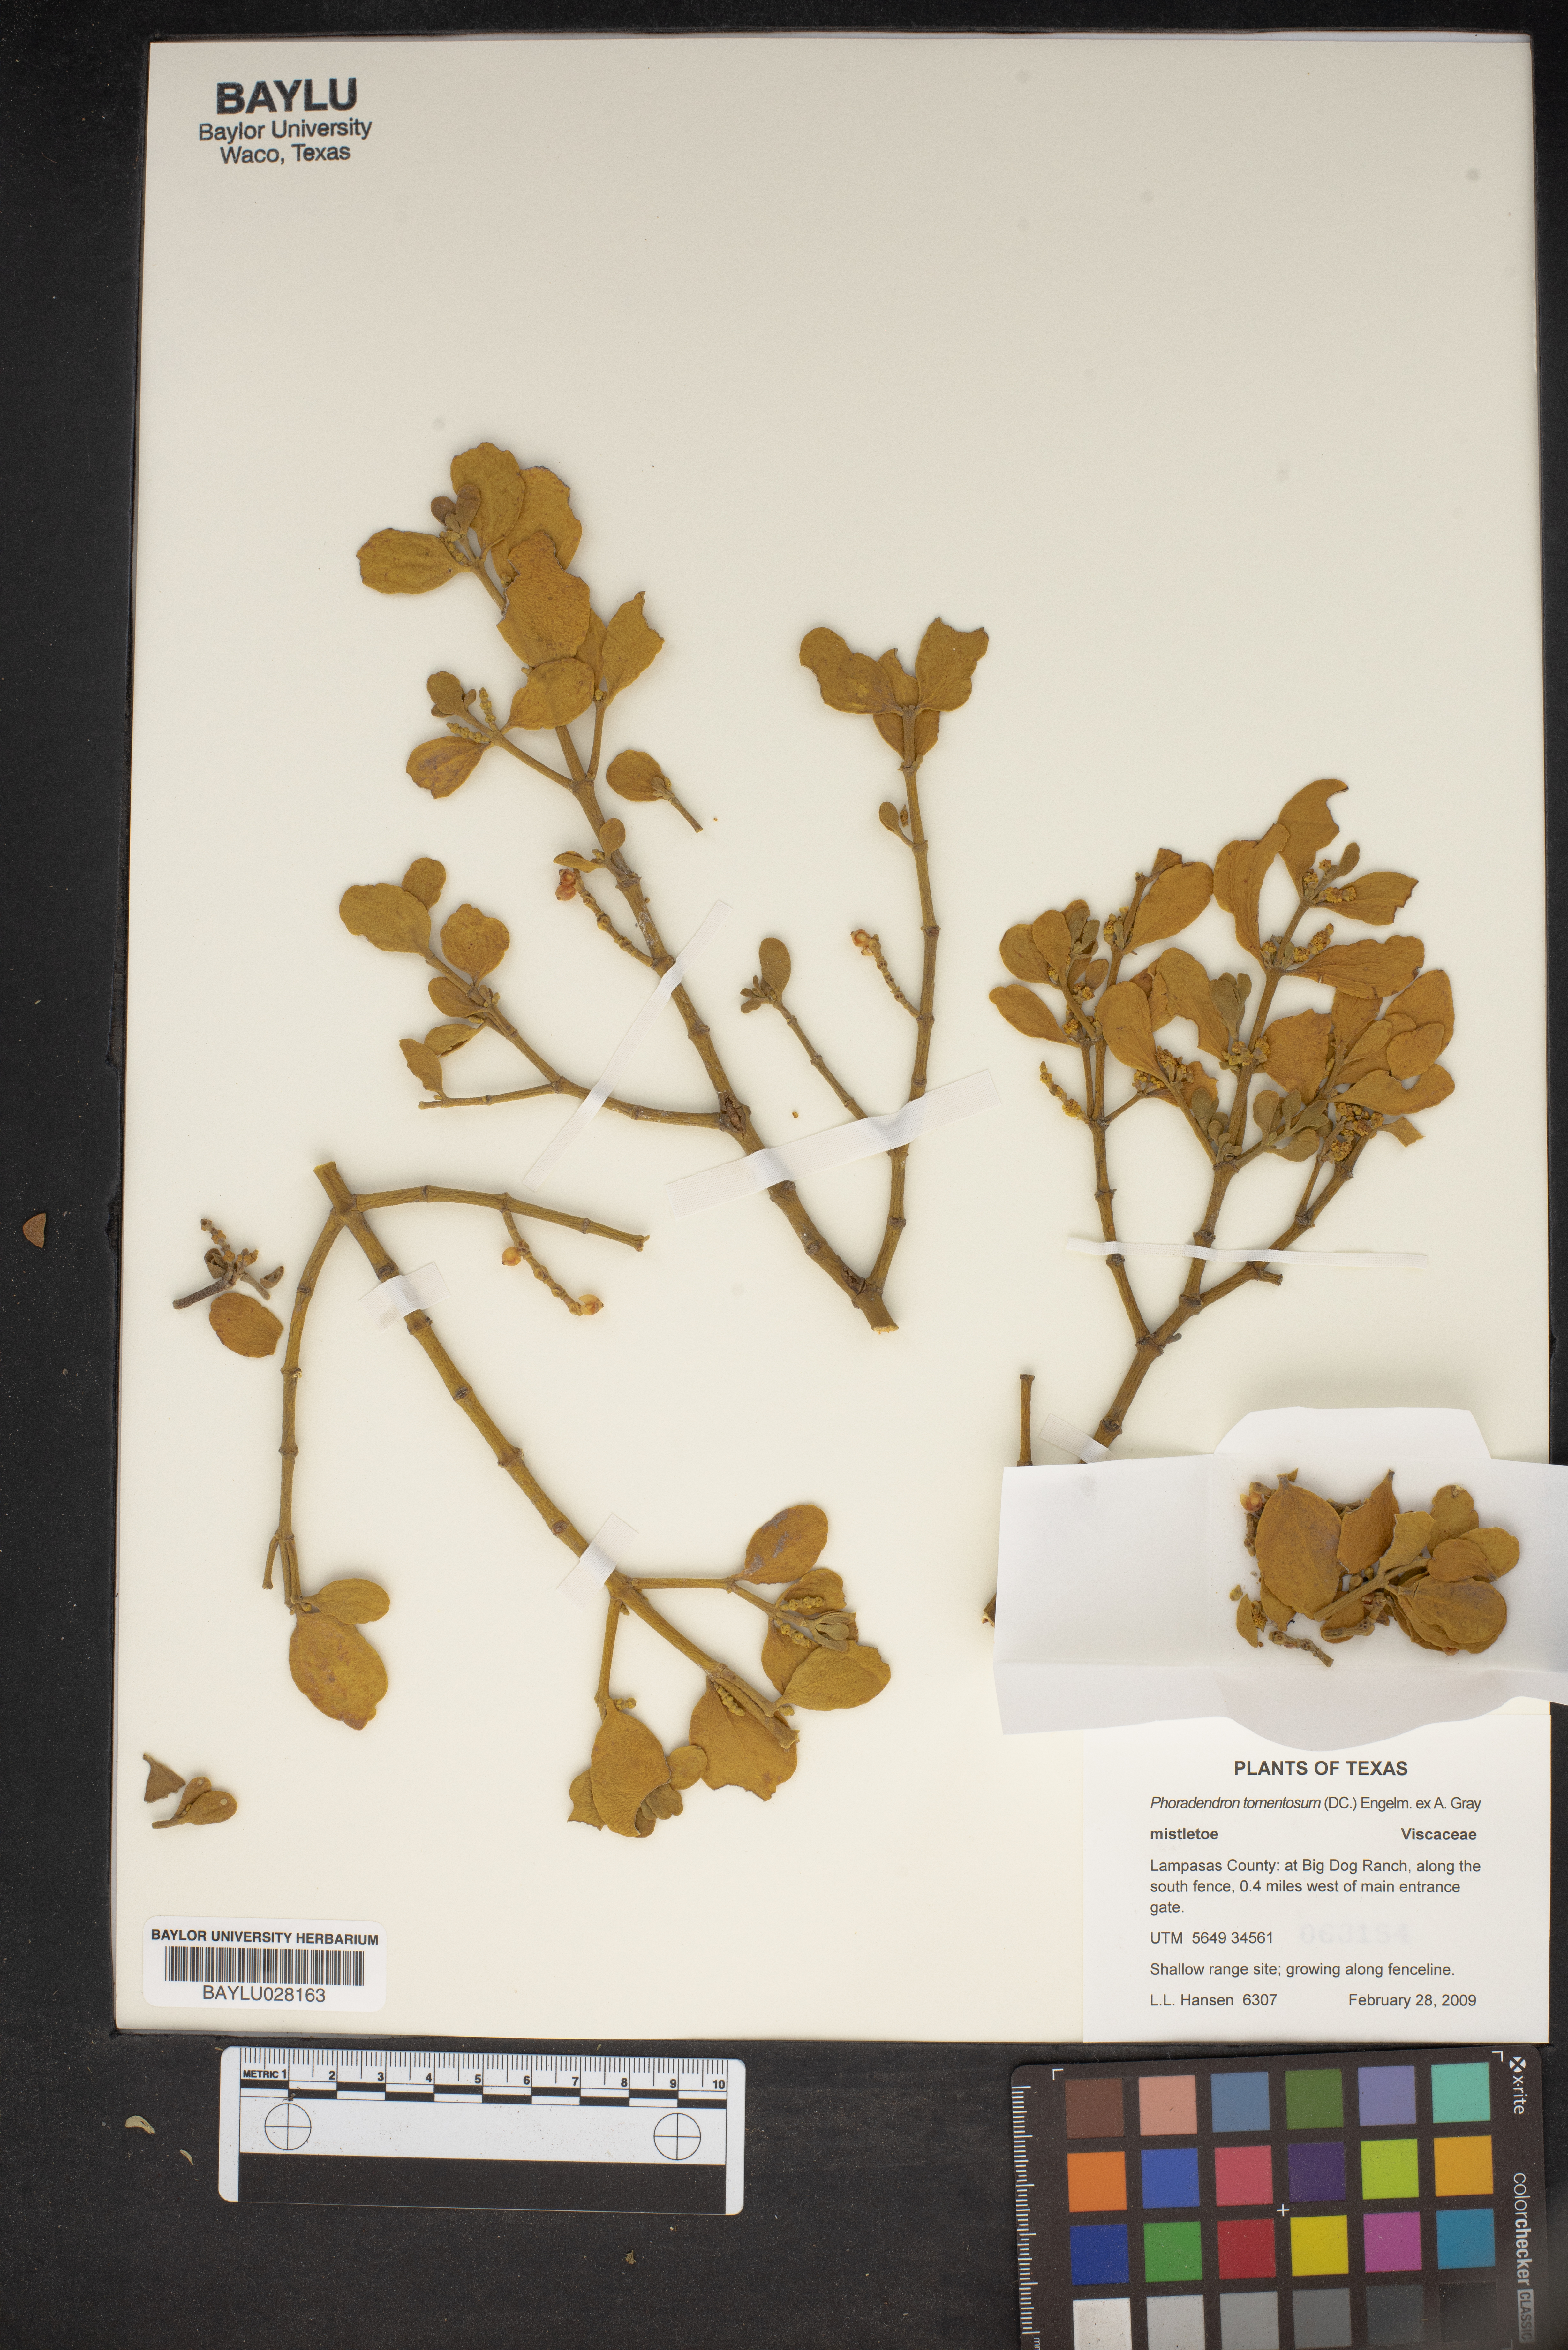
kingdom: Plantae
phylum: Tracheophyta
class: Magnoliopsida
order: Santalales
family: Viscaceae
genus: Phoradendron
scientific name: Phoradendron leucarpum
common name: Pacific mistletoe
